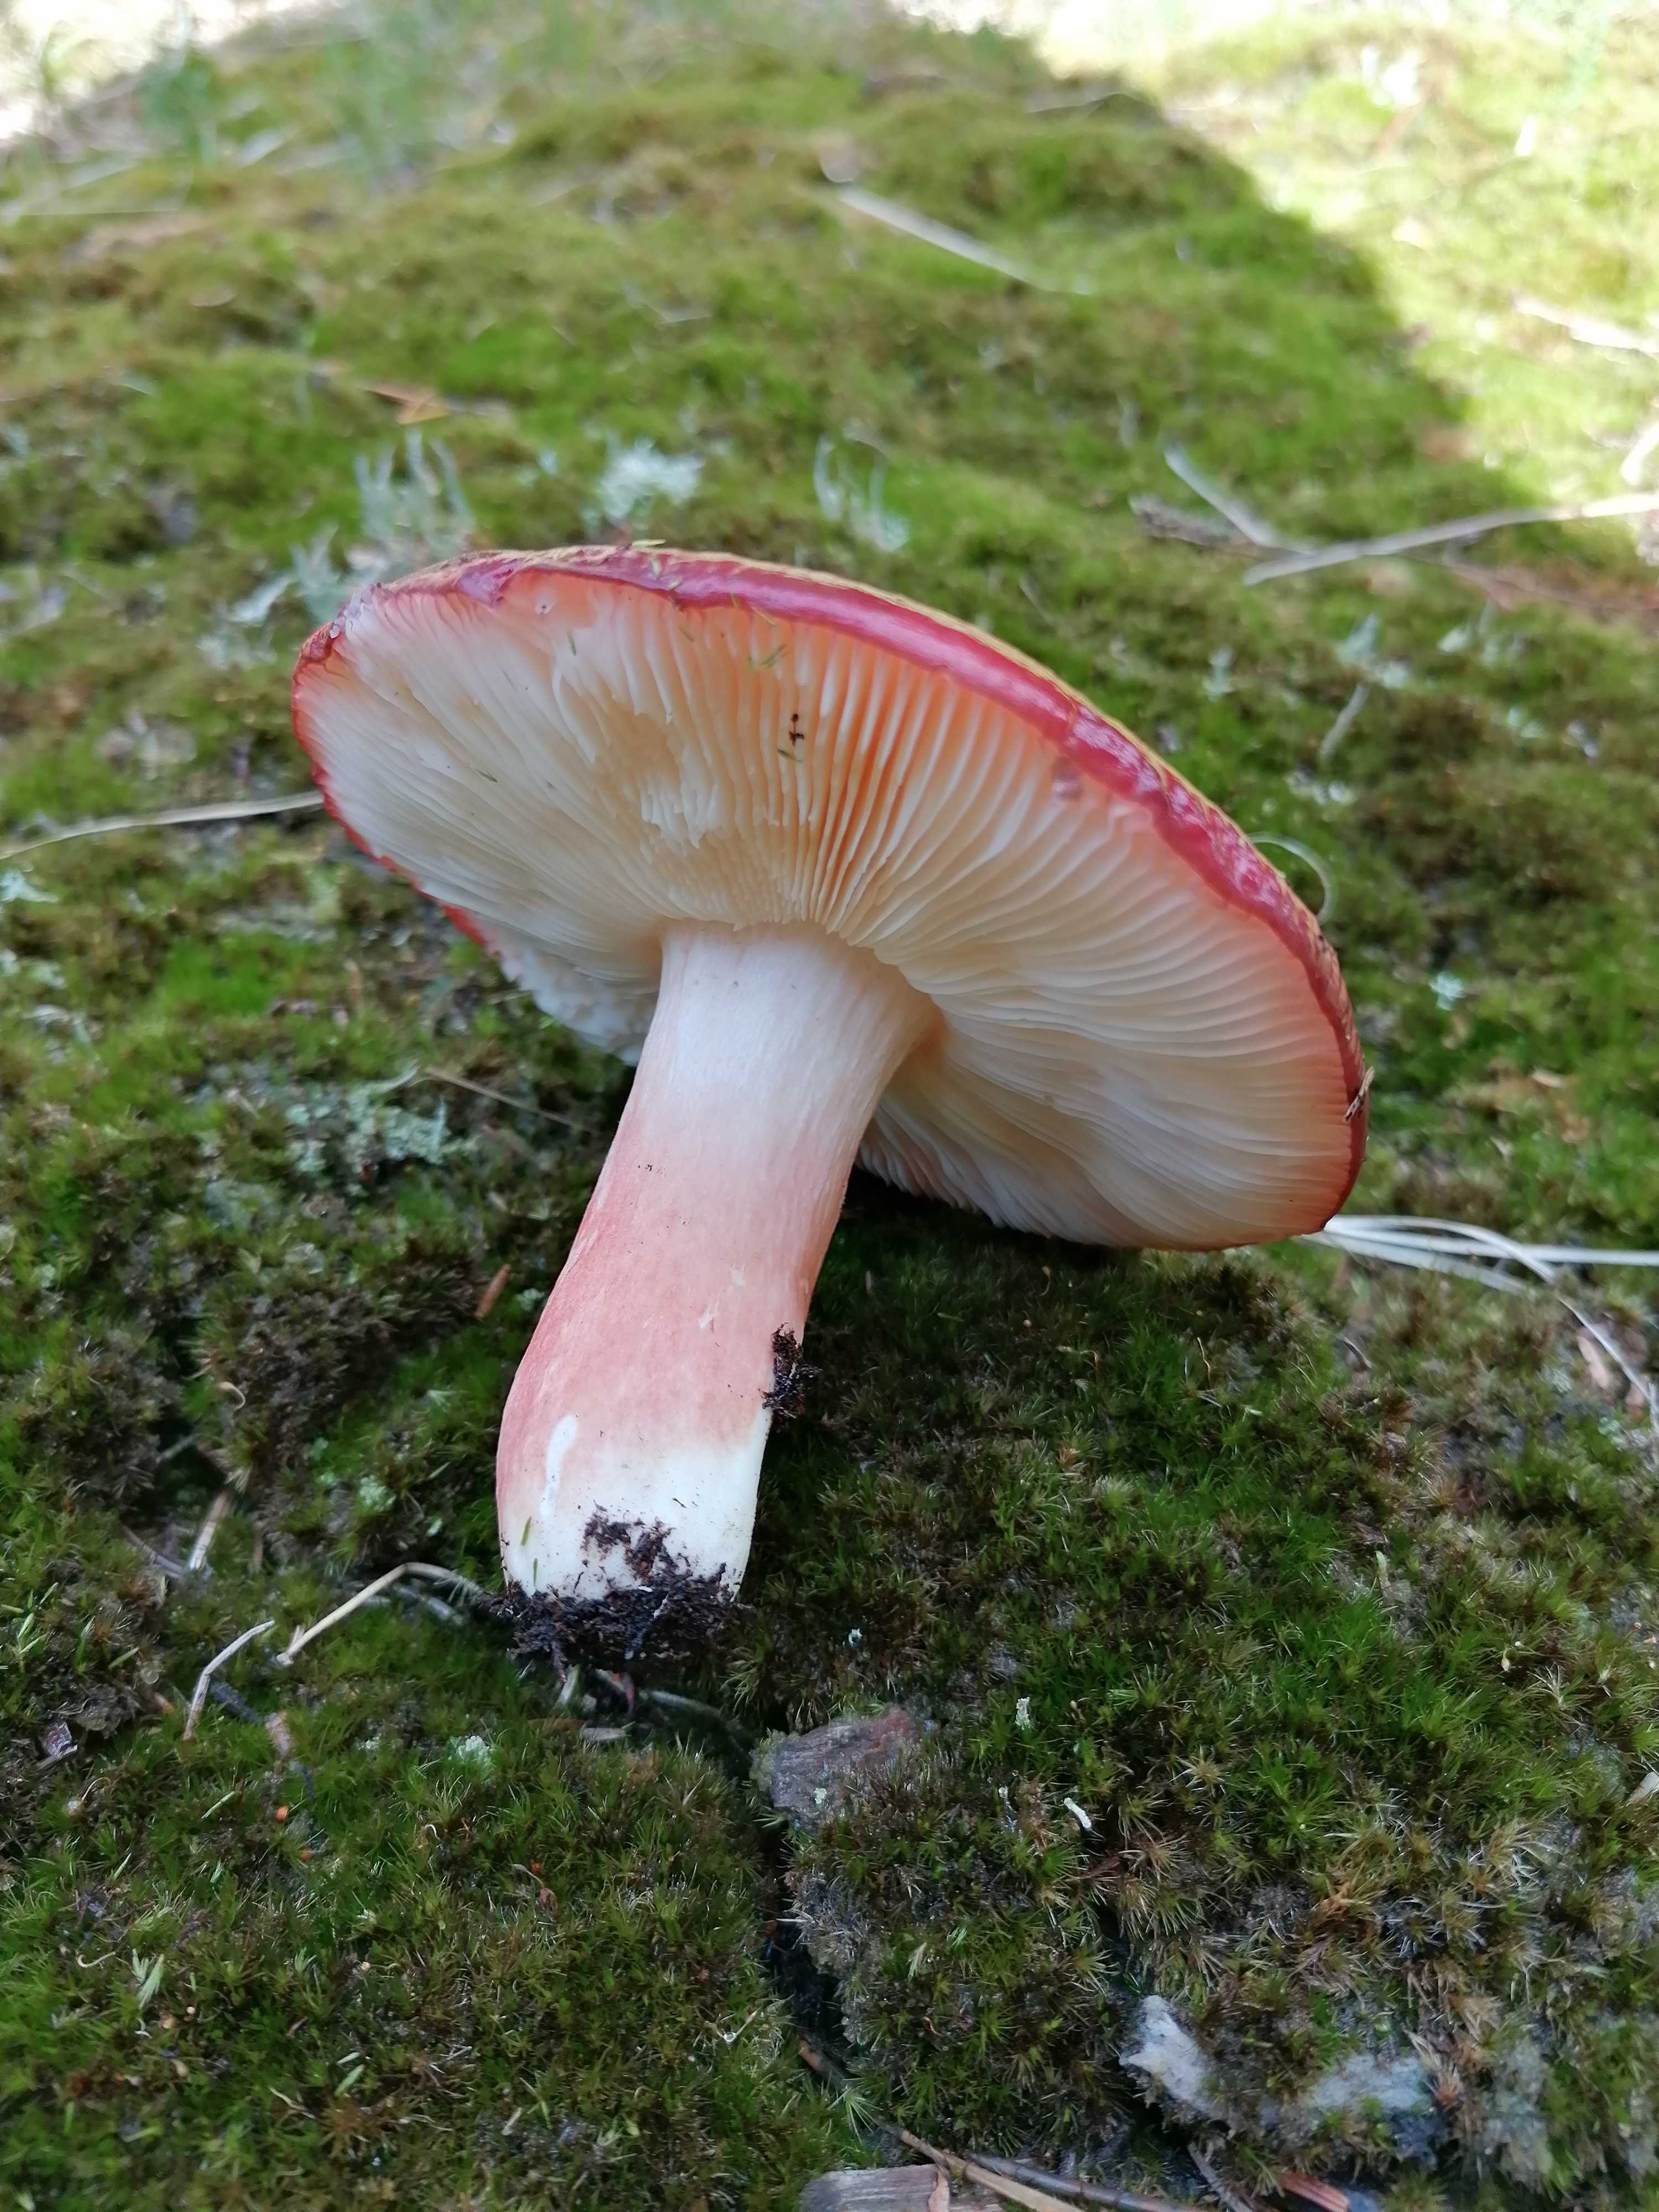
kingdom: Fungi
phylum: Basidiomycota
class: Agaricomycetes
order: Russulales
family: Russulaceae
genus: Russula
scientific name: Russula paludosa
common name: prægtig skørhat
